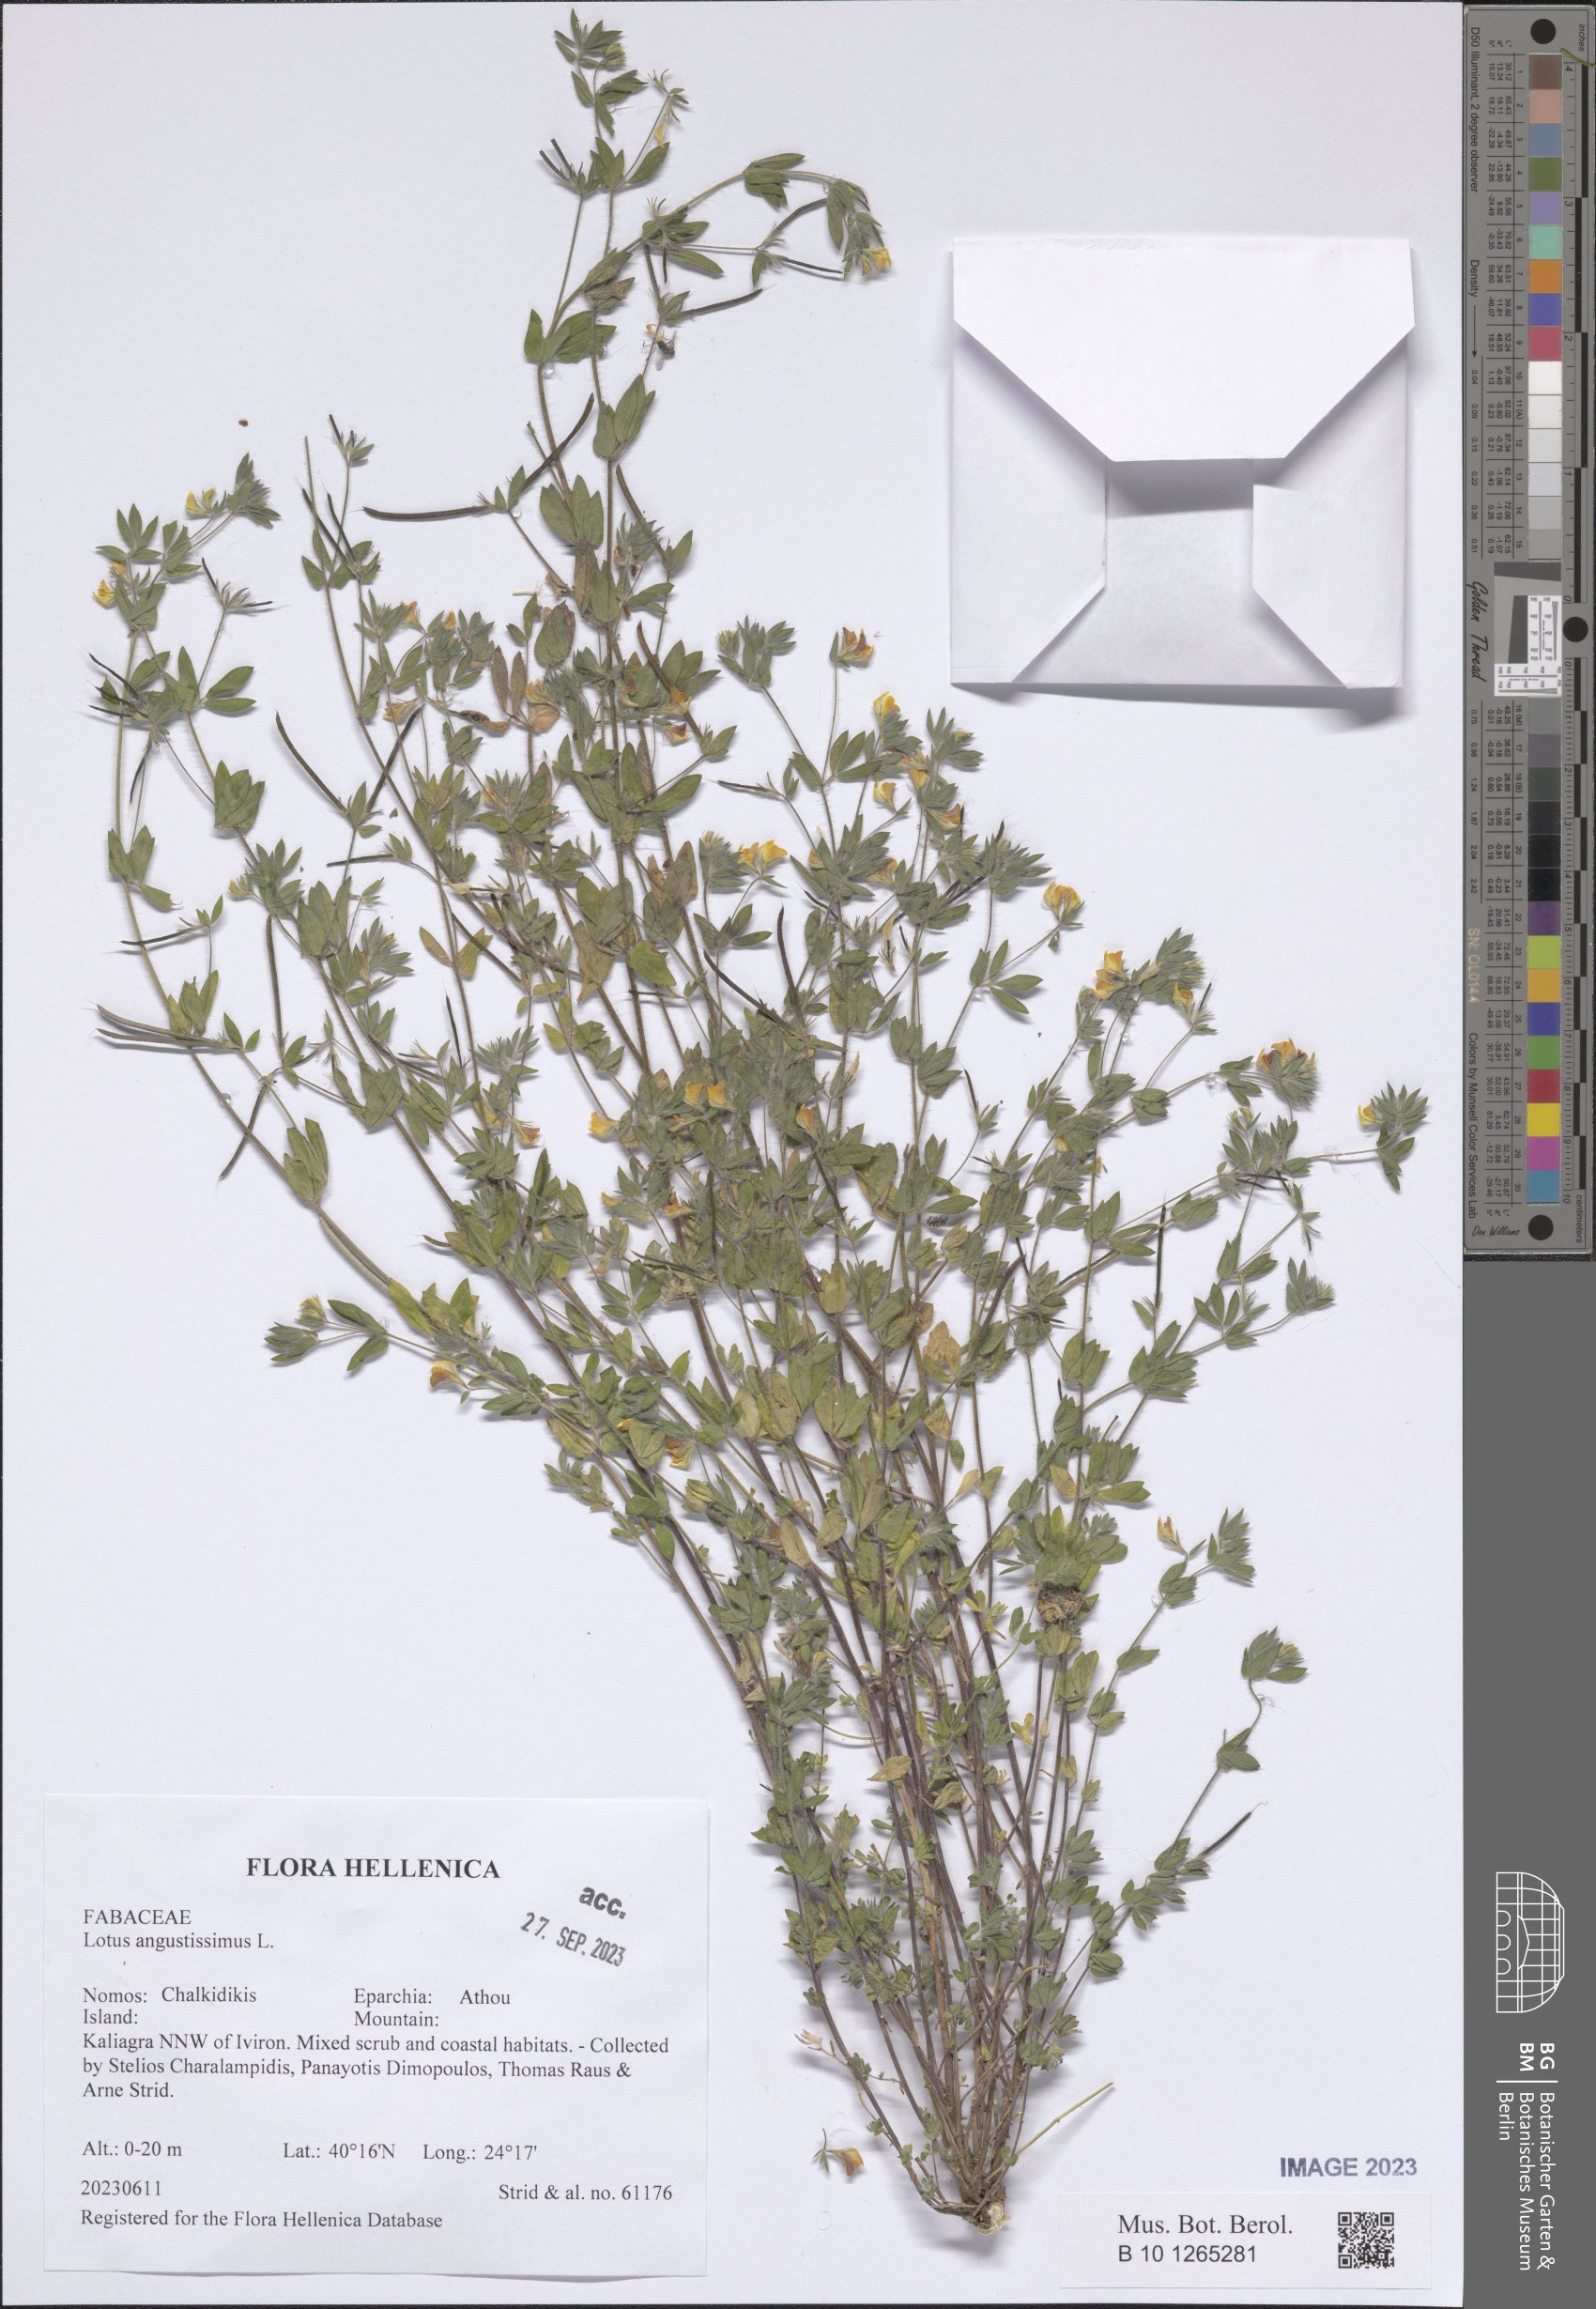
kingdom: Plantae
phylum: Tracheophyta
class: Magnoliopsida
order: Fabales
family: Fabaceae
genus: Lotus
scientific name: Lotus angustissimus
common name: Slender bird's-foot trefoil
